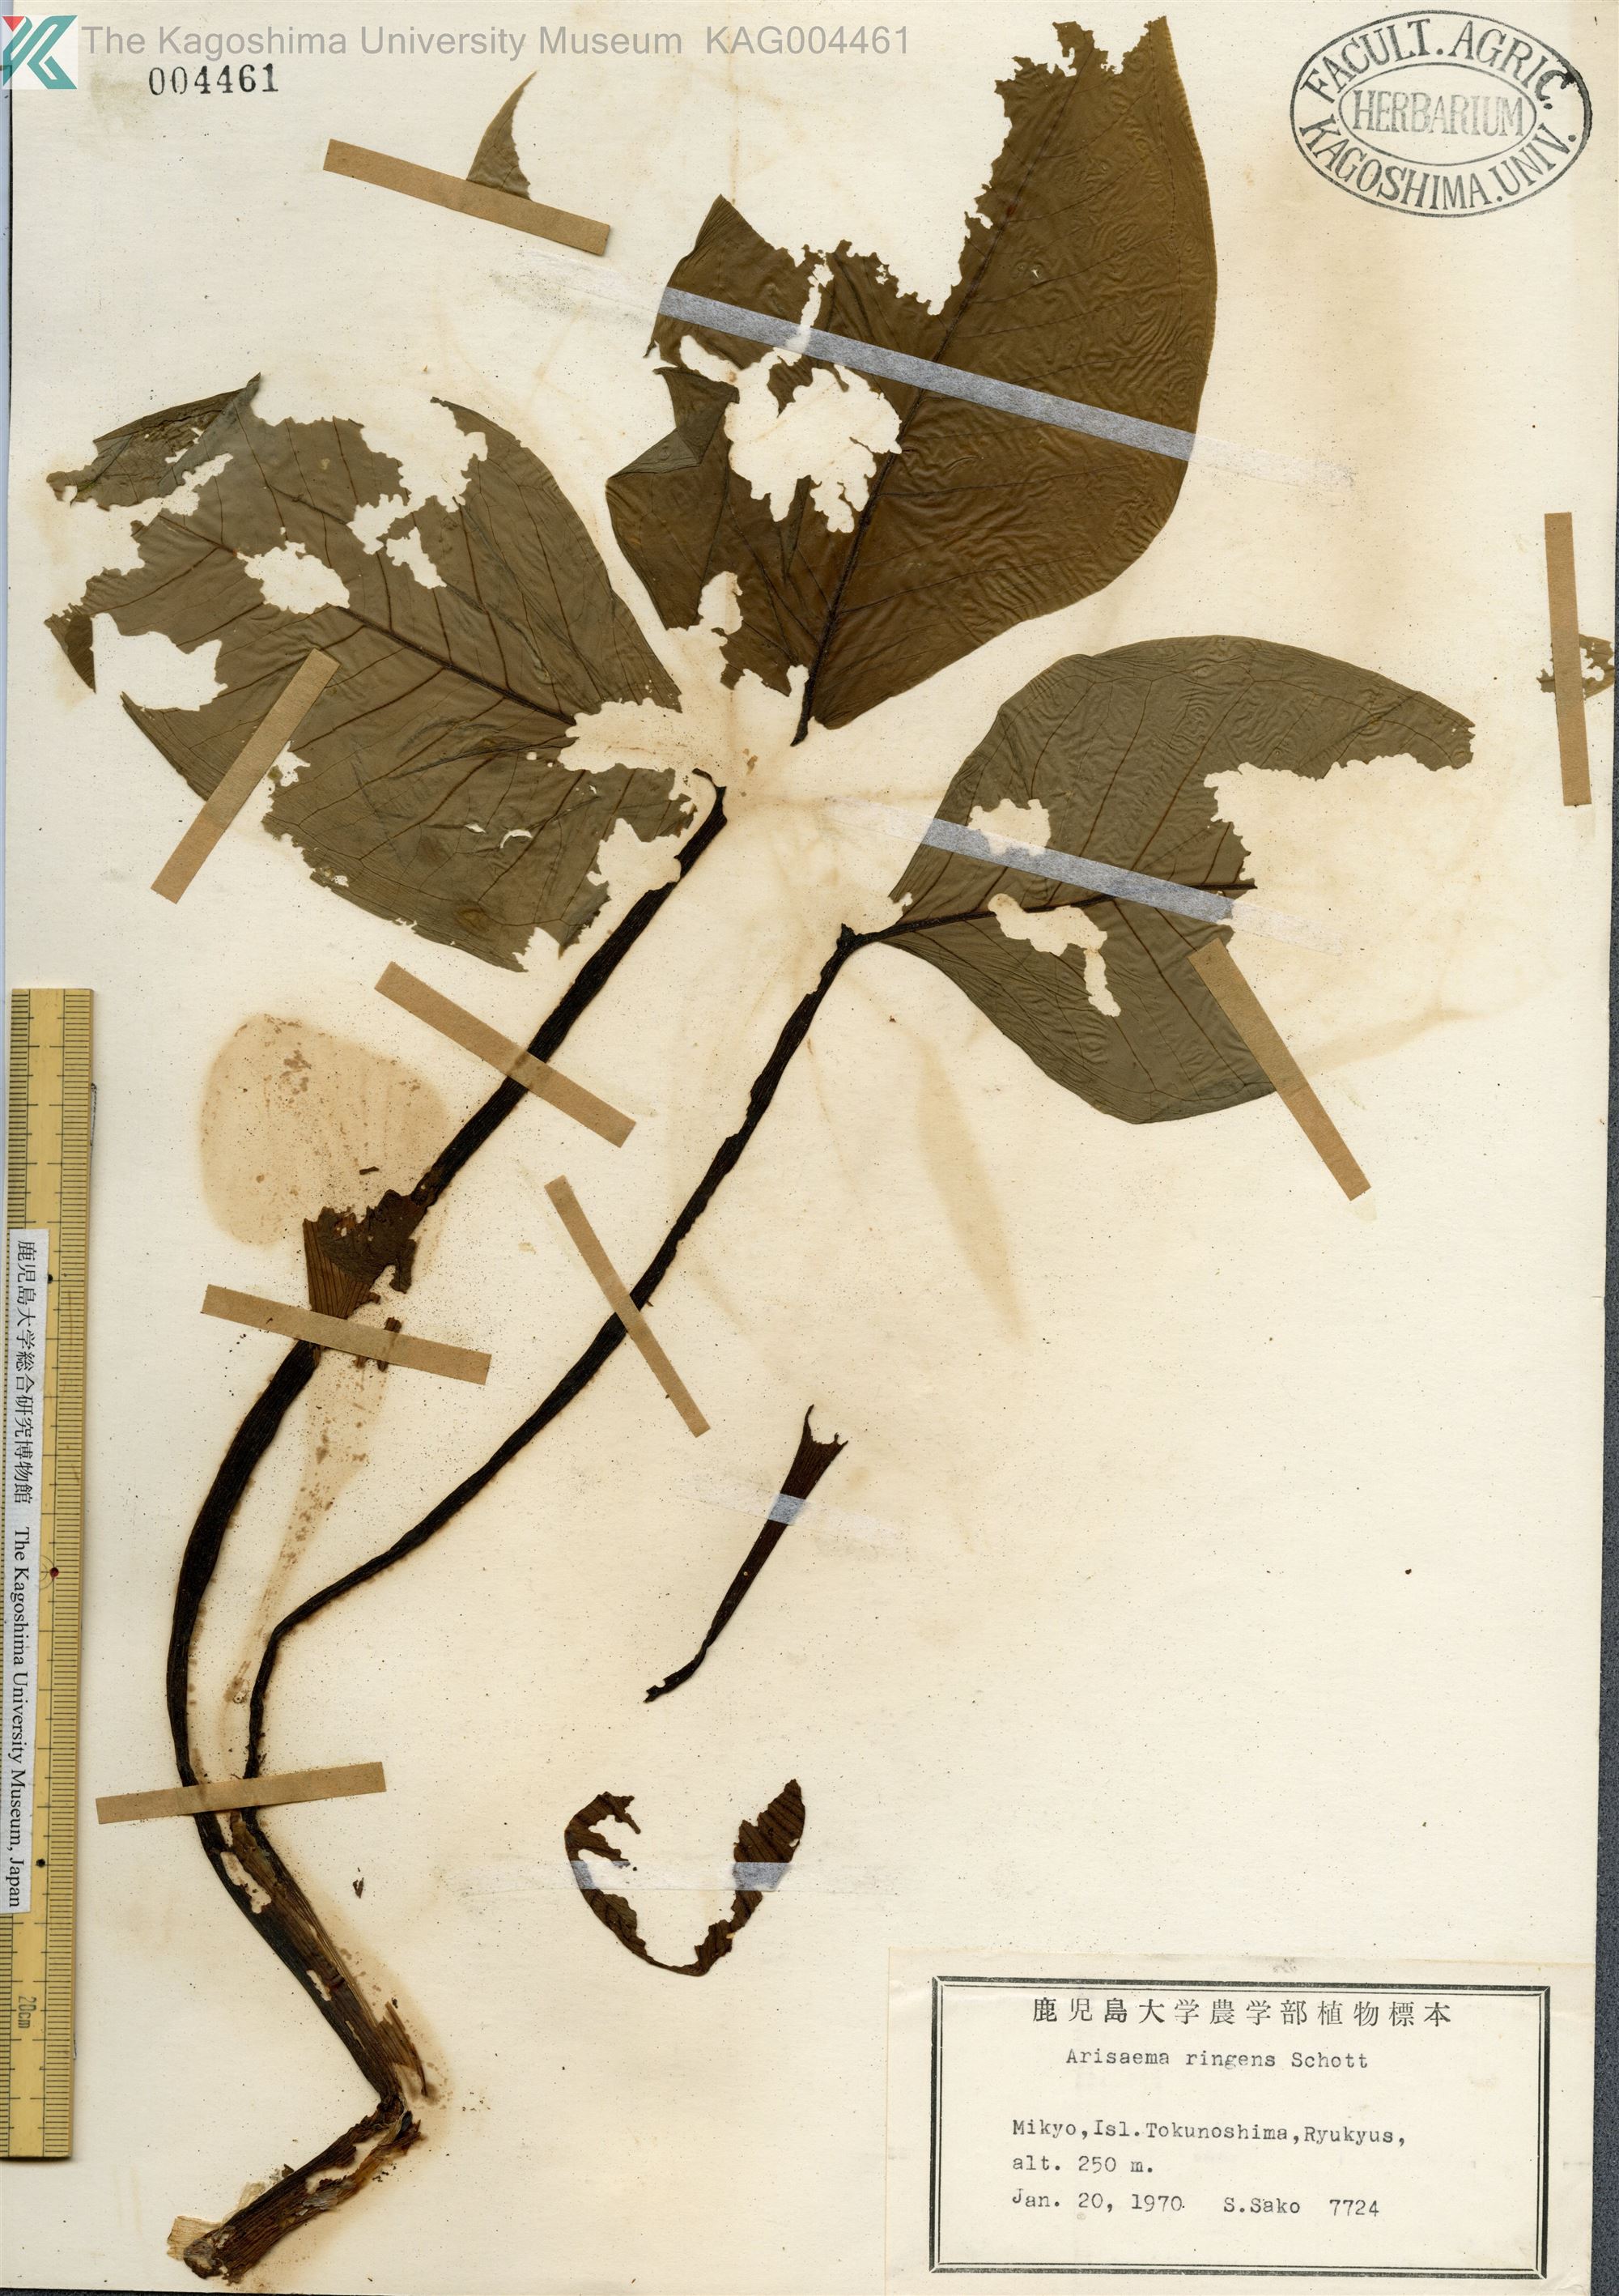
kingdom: Plantae
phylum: Tracheophyta
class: Liliopsida
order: Alismatales
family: Araceae
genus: Arisaema
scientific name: Arisaema ringens
